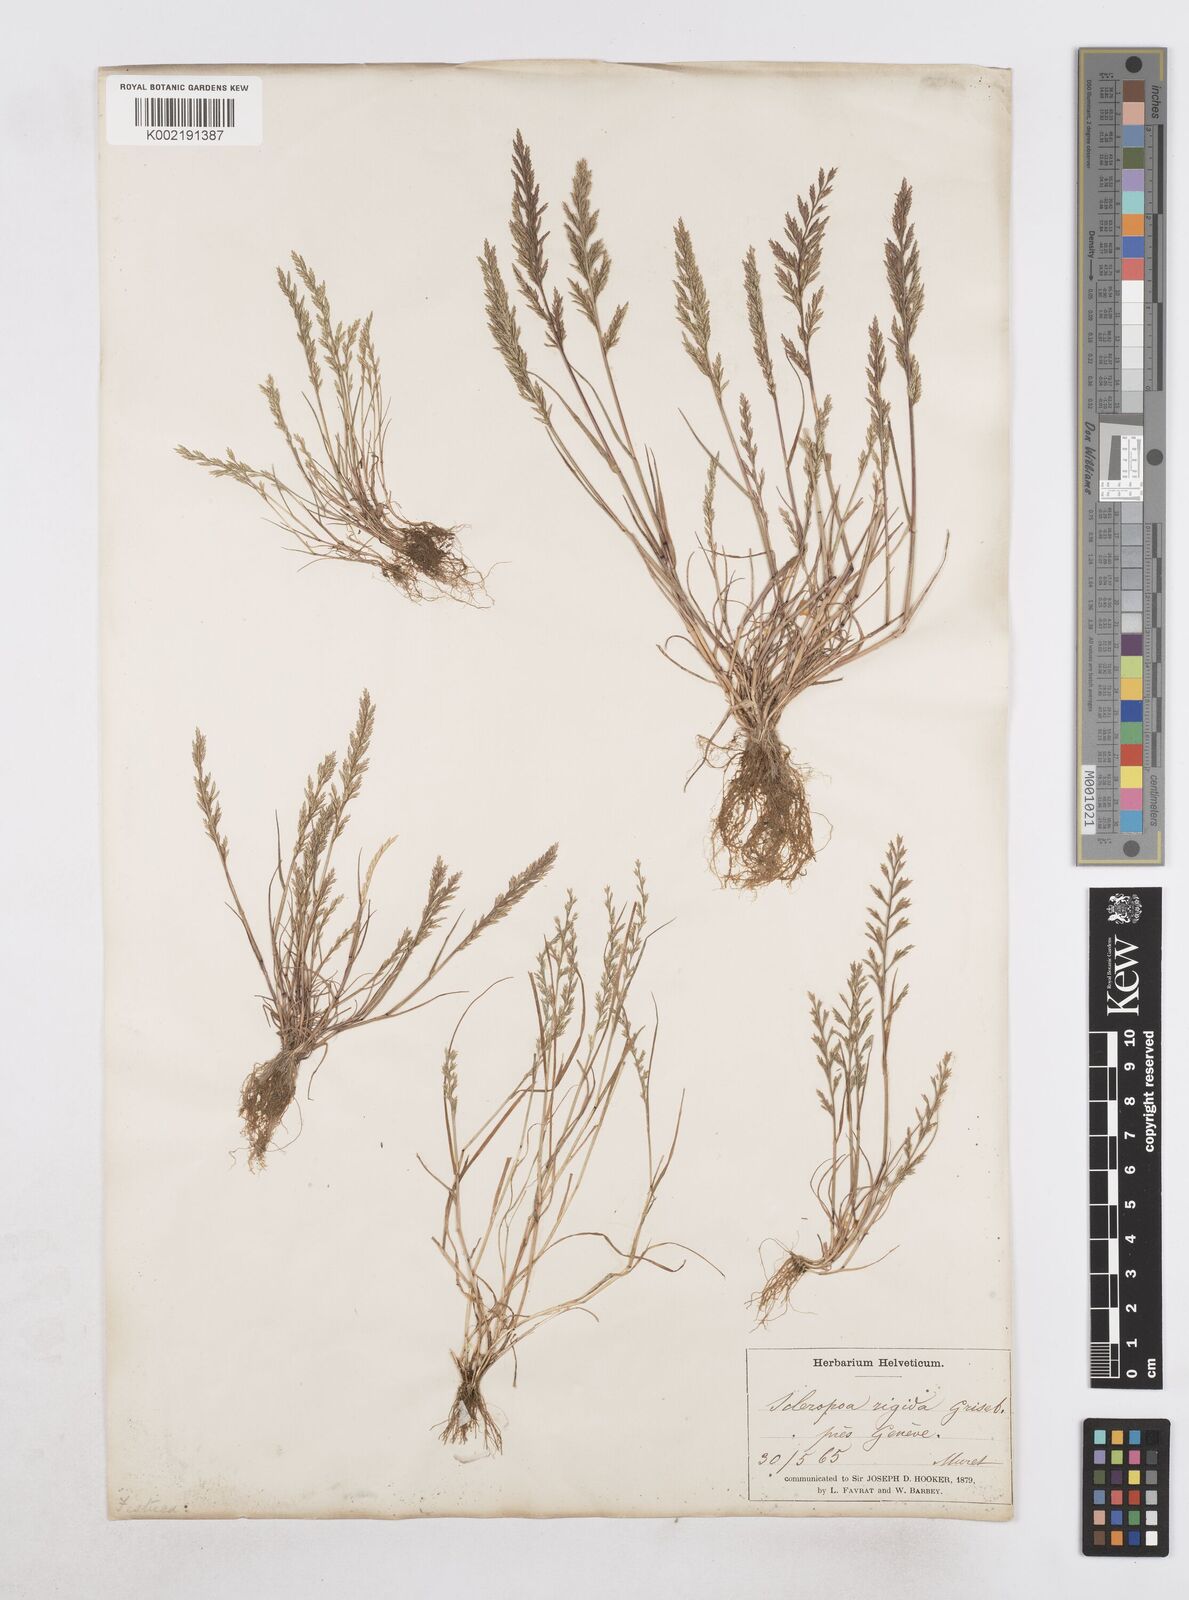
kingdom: Plantae
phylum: Tracheophyta
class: Liliopsida
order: Poales
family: Poaceae
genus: Catapodium
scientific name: Catapodium rigidum
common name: Fern-grass
